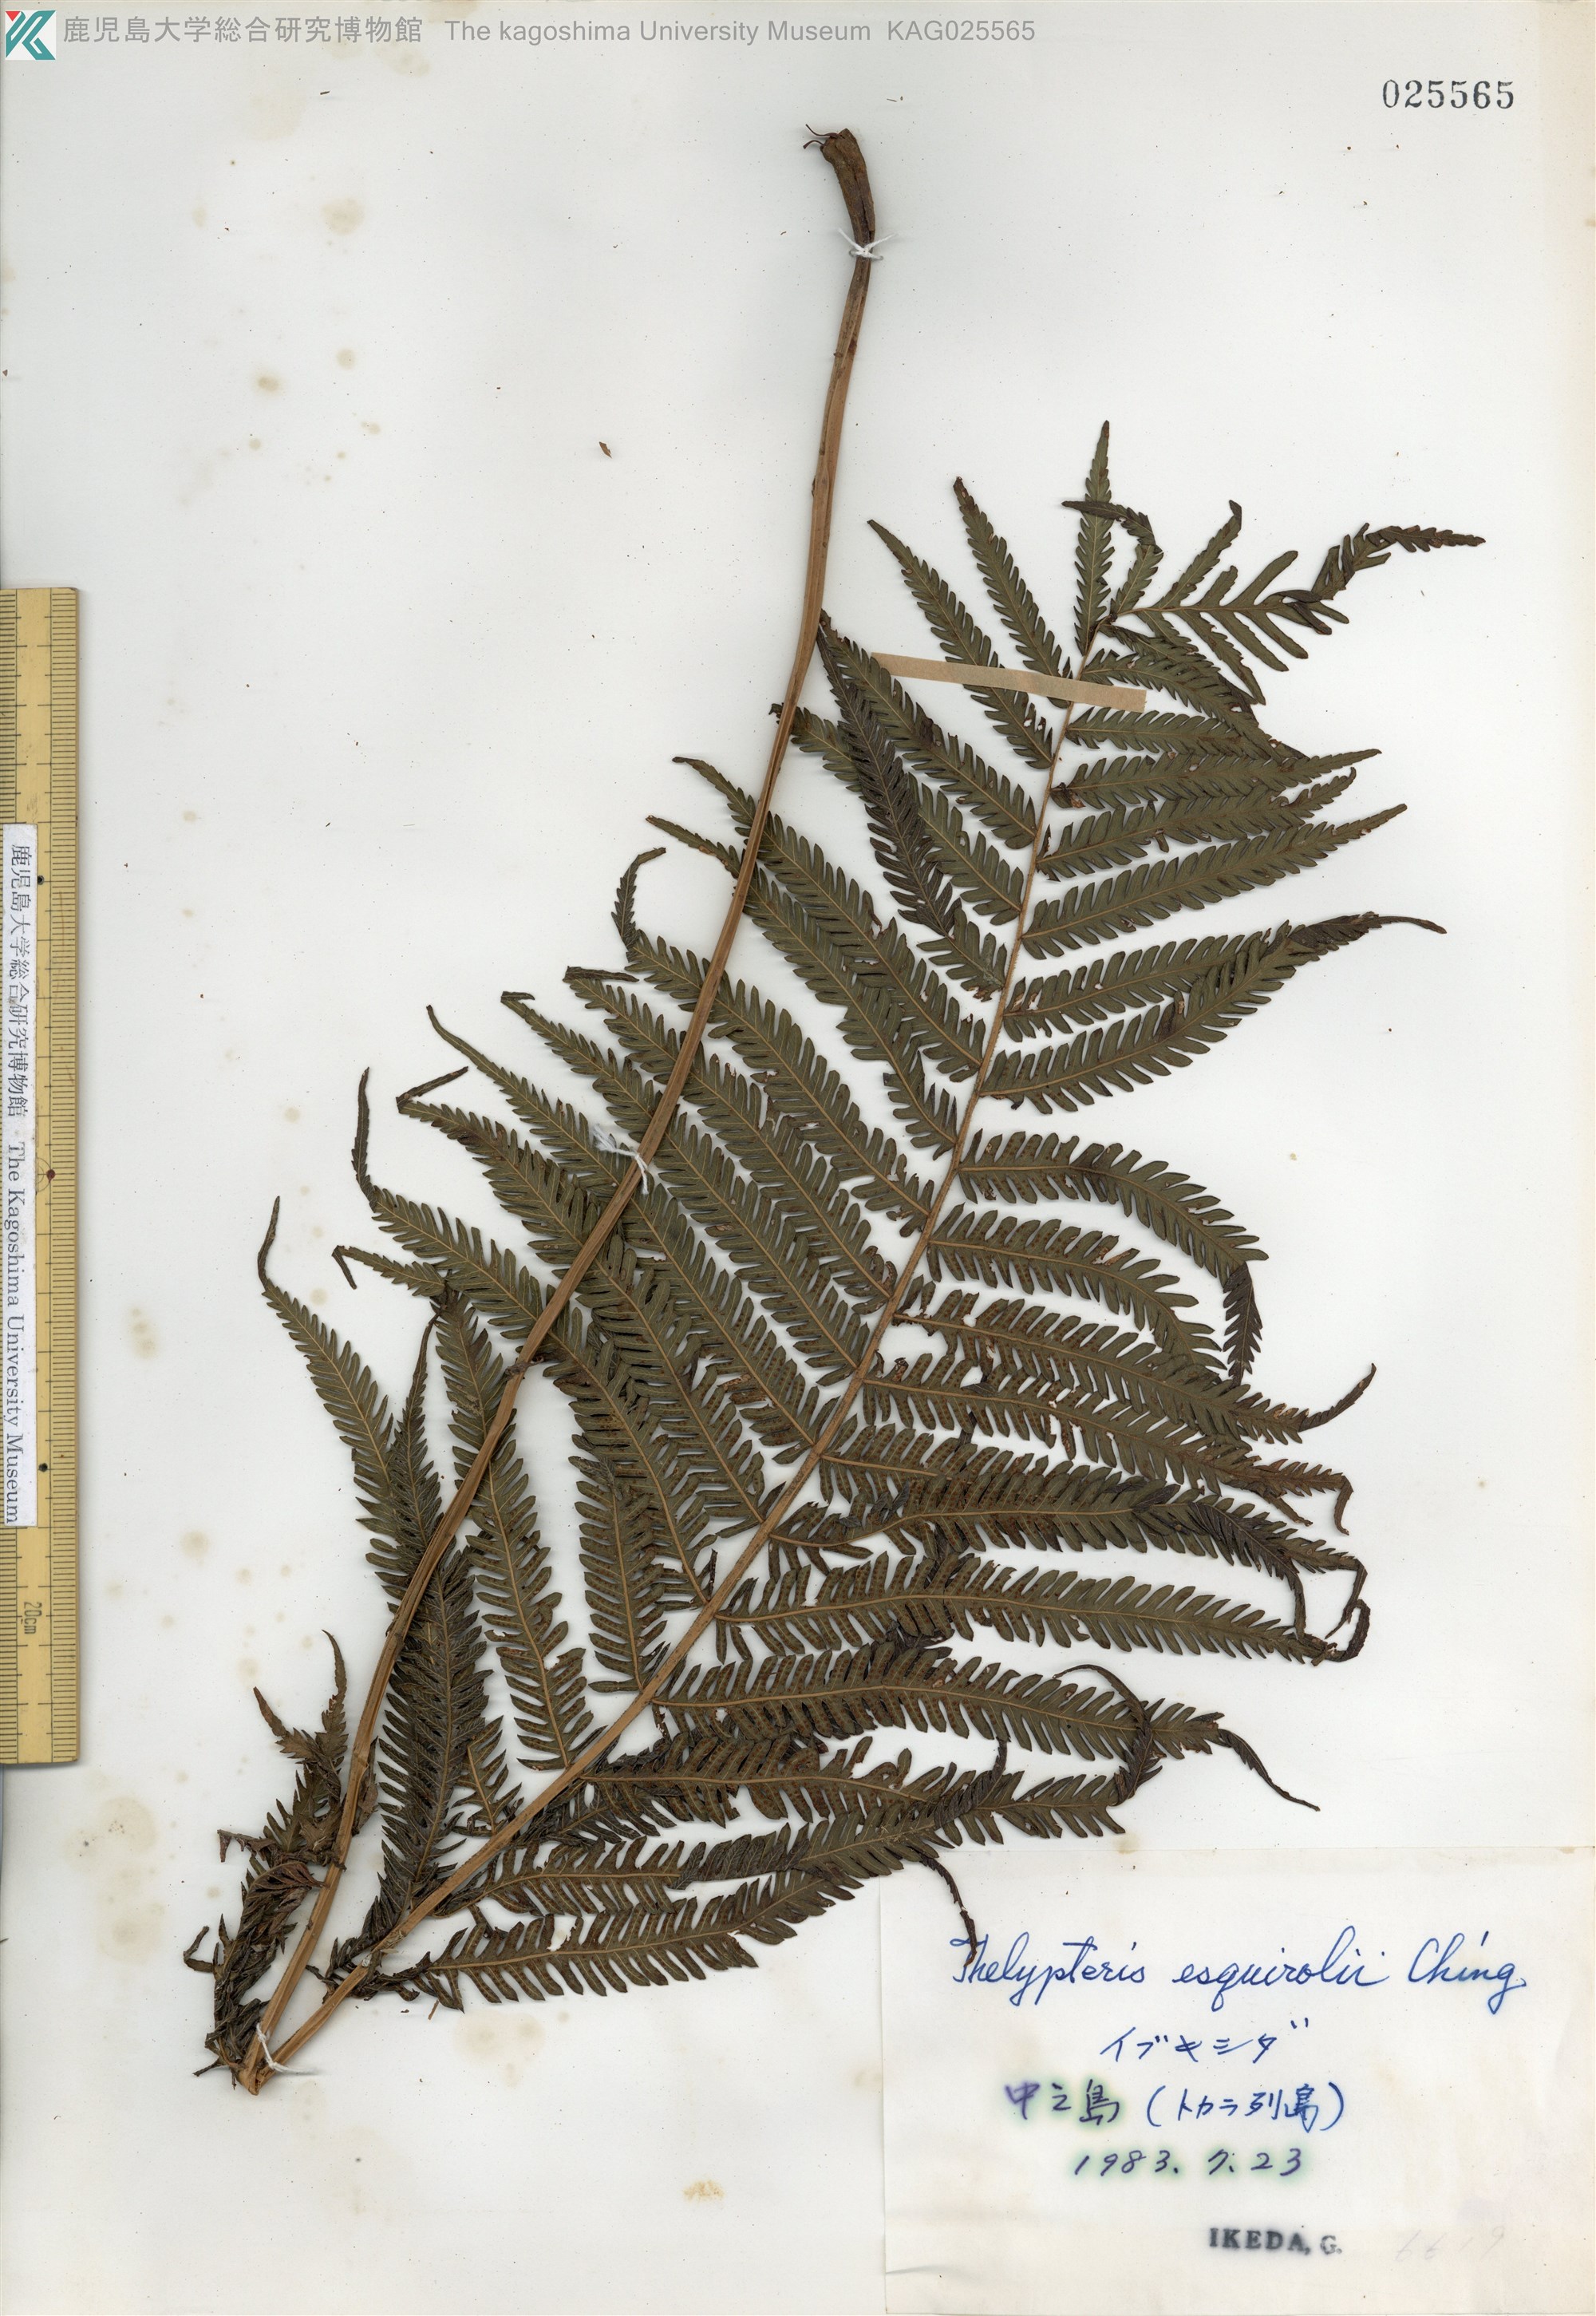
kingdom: Plantae
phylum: Tracheophyta
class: Polypodiopsida
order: Polypodiales
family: Thelypteridaceae
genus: Pseudocyclosorus
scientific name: Pseudocyclosorus esquirolii
